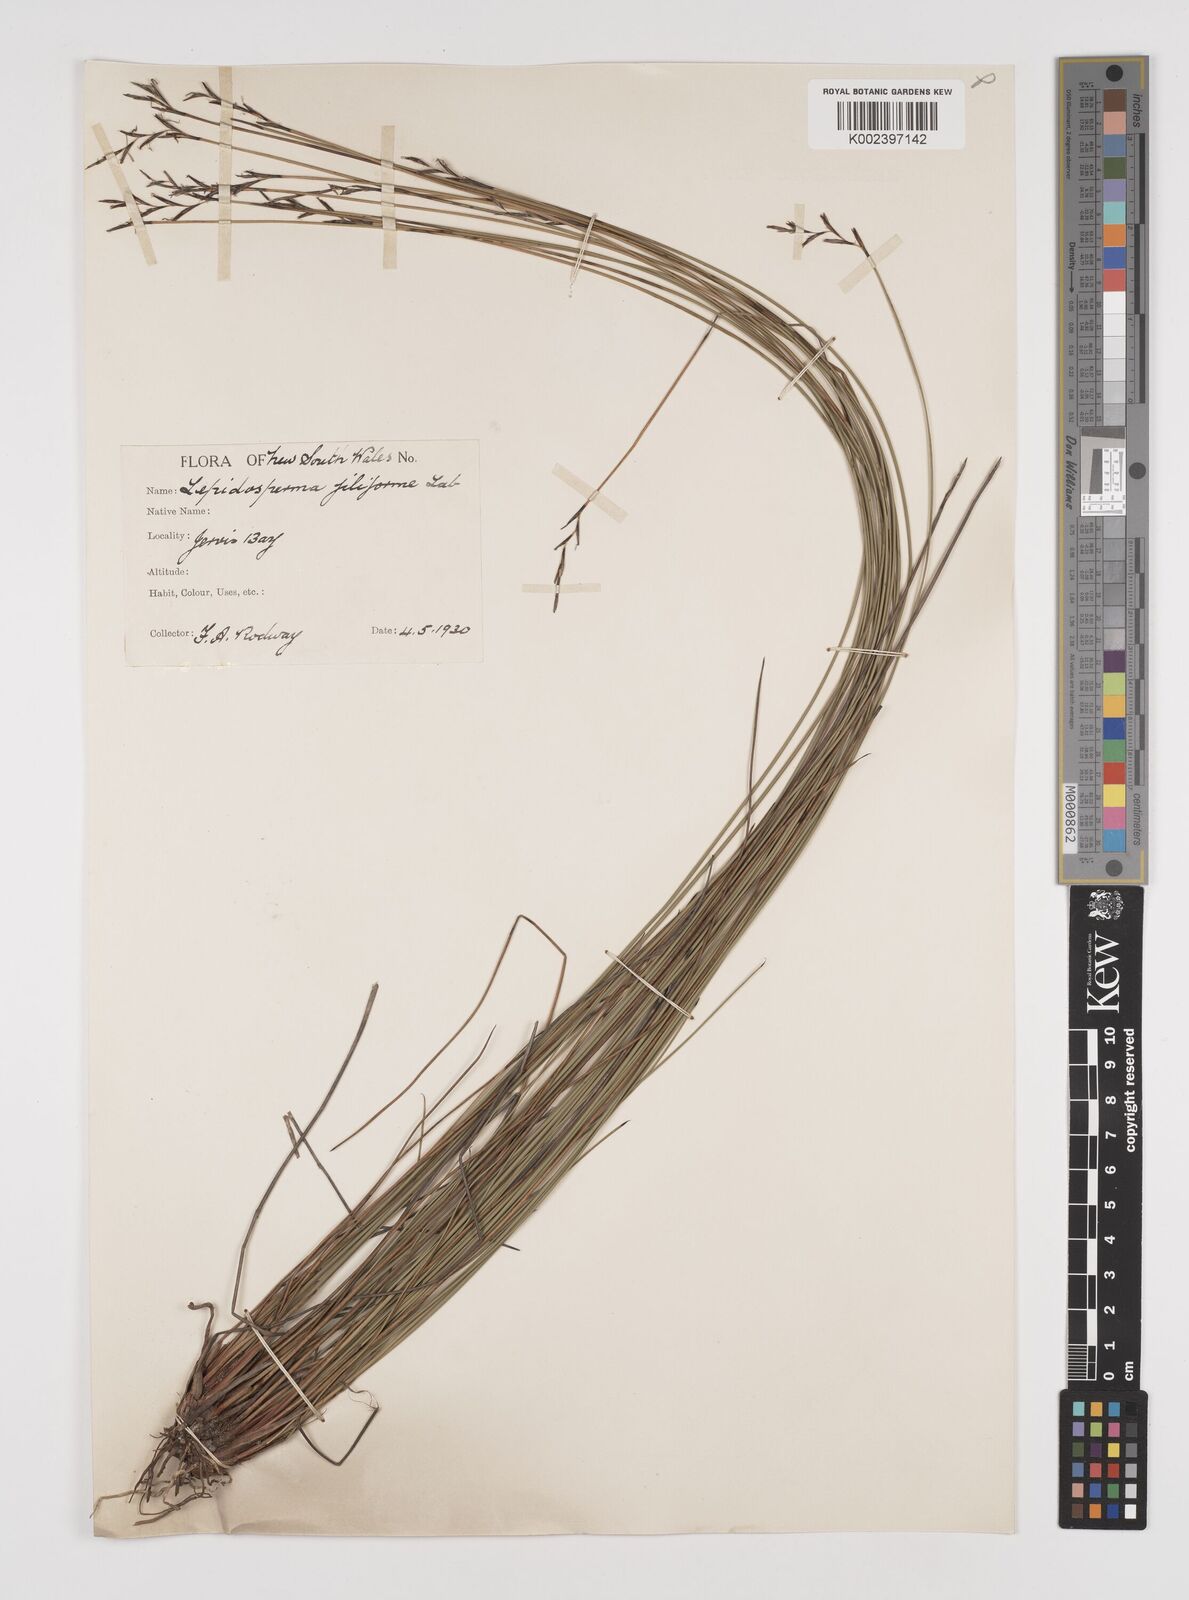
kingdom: Plantae
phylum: Tracheophyta
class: Liliopsida
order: Poales
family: Cyperaceae
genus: Lepidosperma
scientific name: Lepidosperma filiforme
